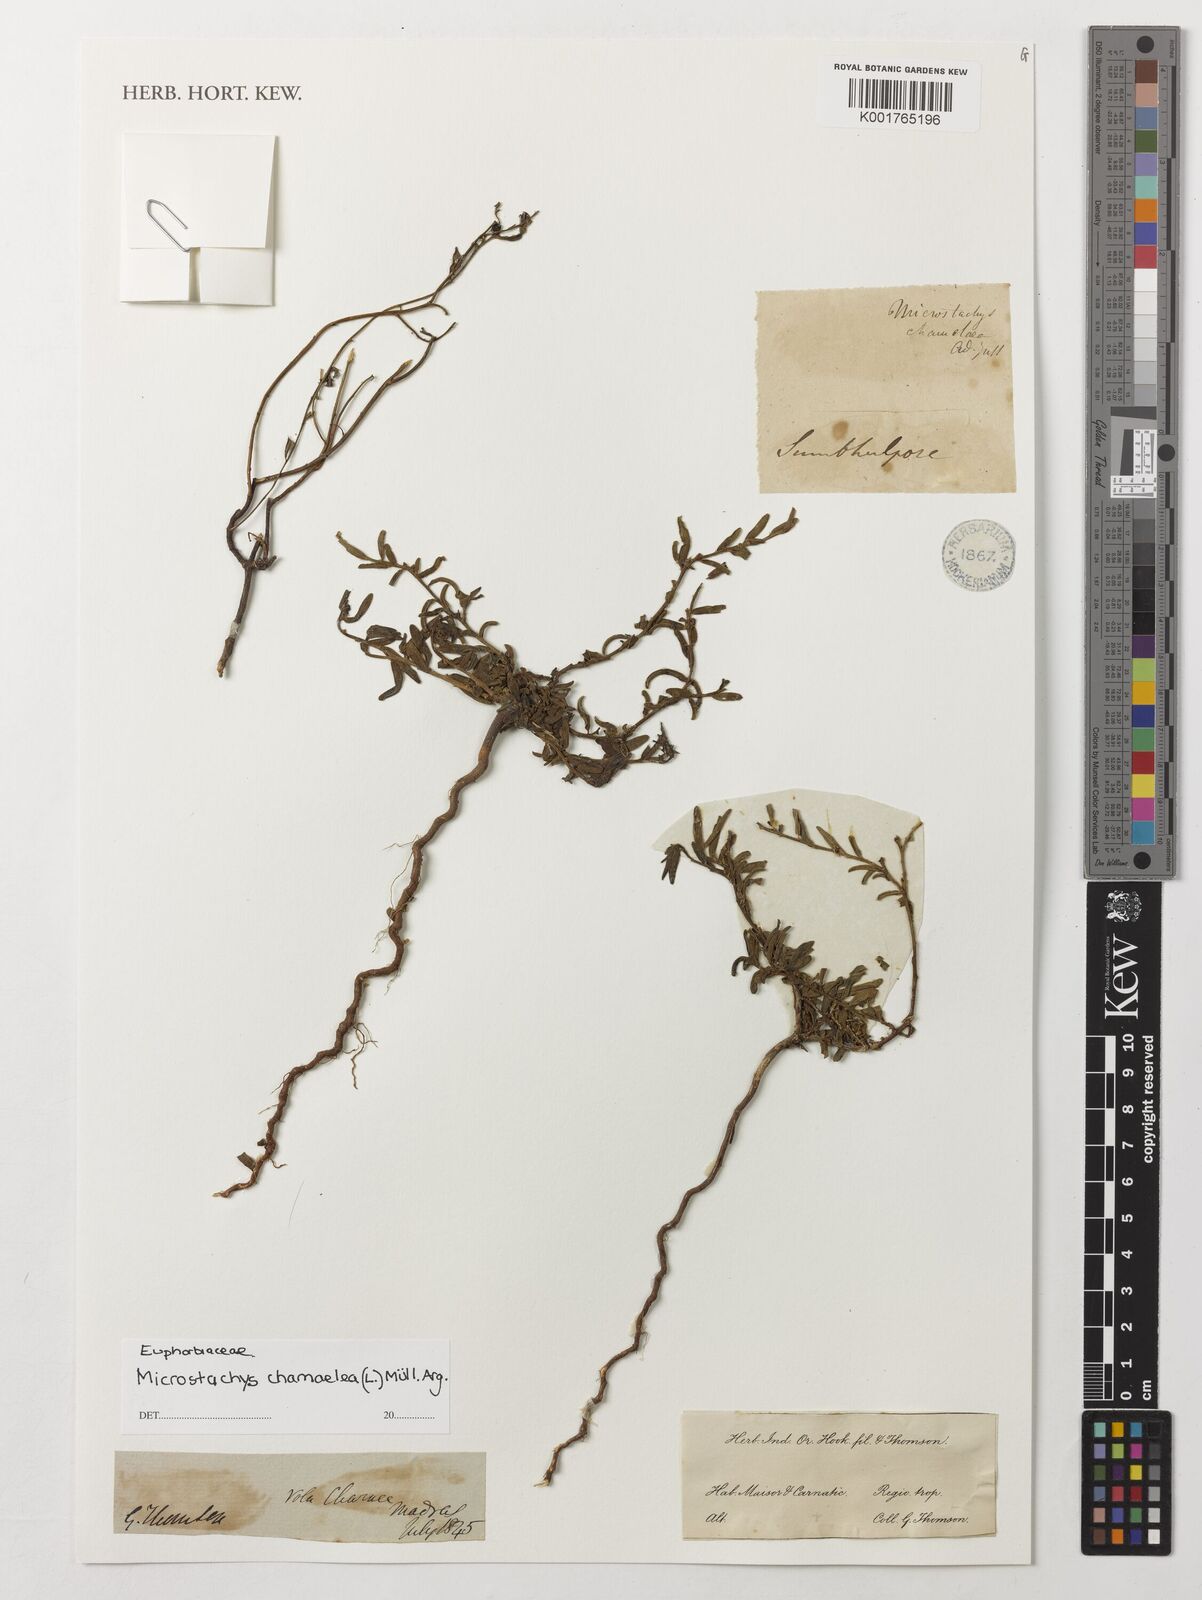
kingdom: Plantae
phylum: Tracheophyta
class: Magnoliopsida
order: Malpighiales
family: Euphorbiaceae
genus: Microstachys
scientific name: Microstachys chamaelea
